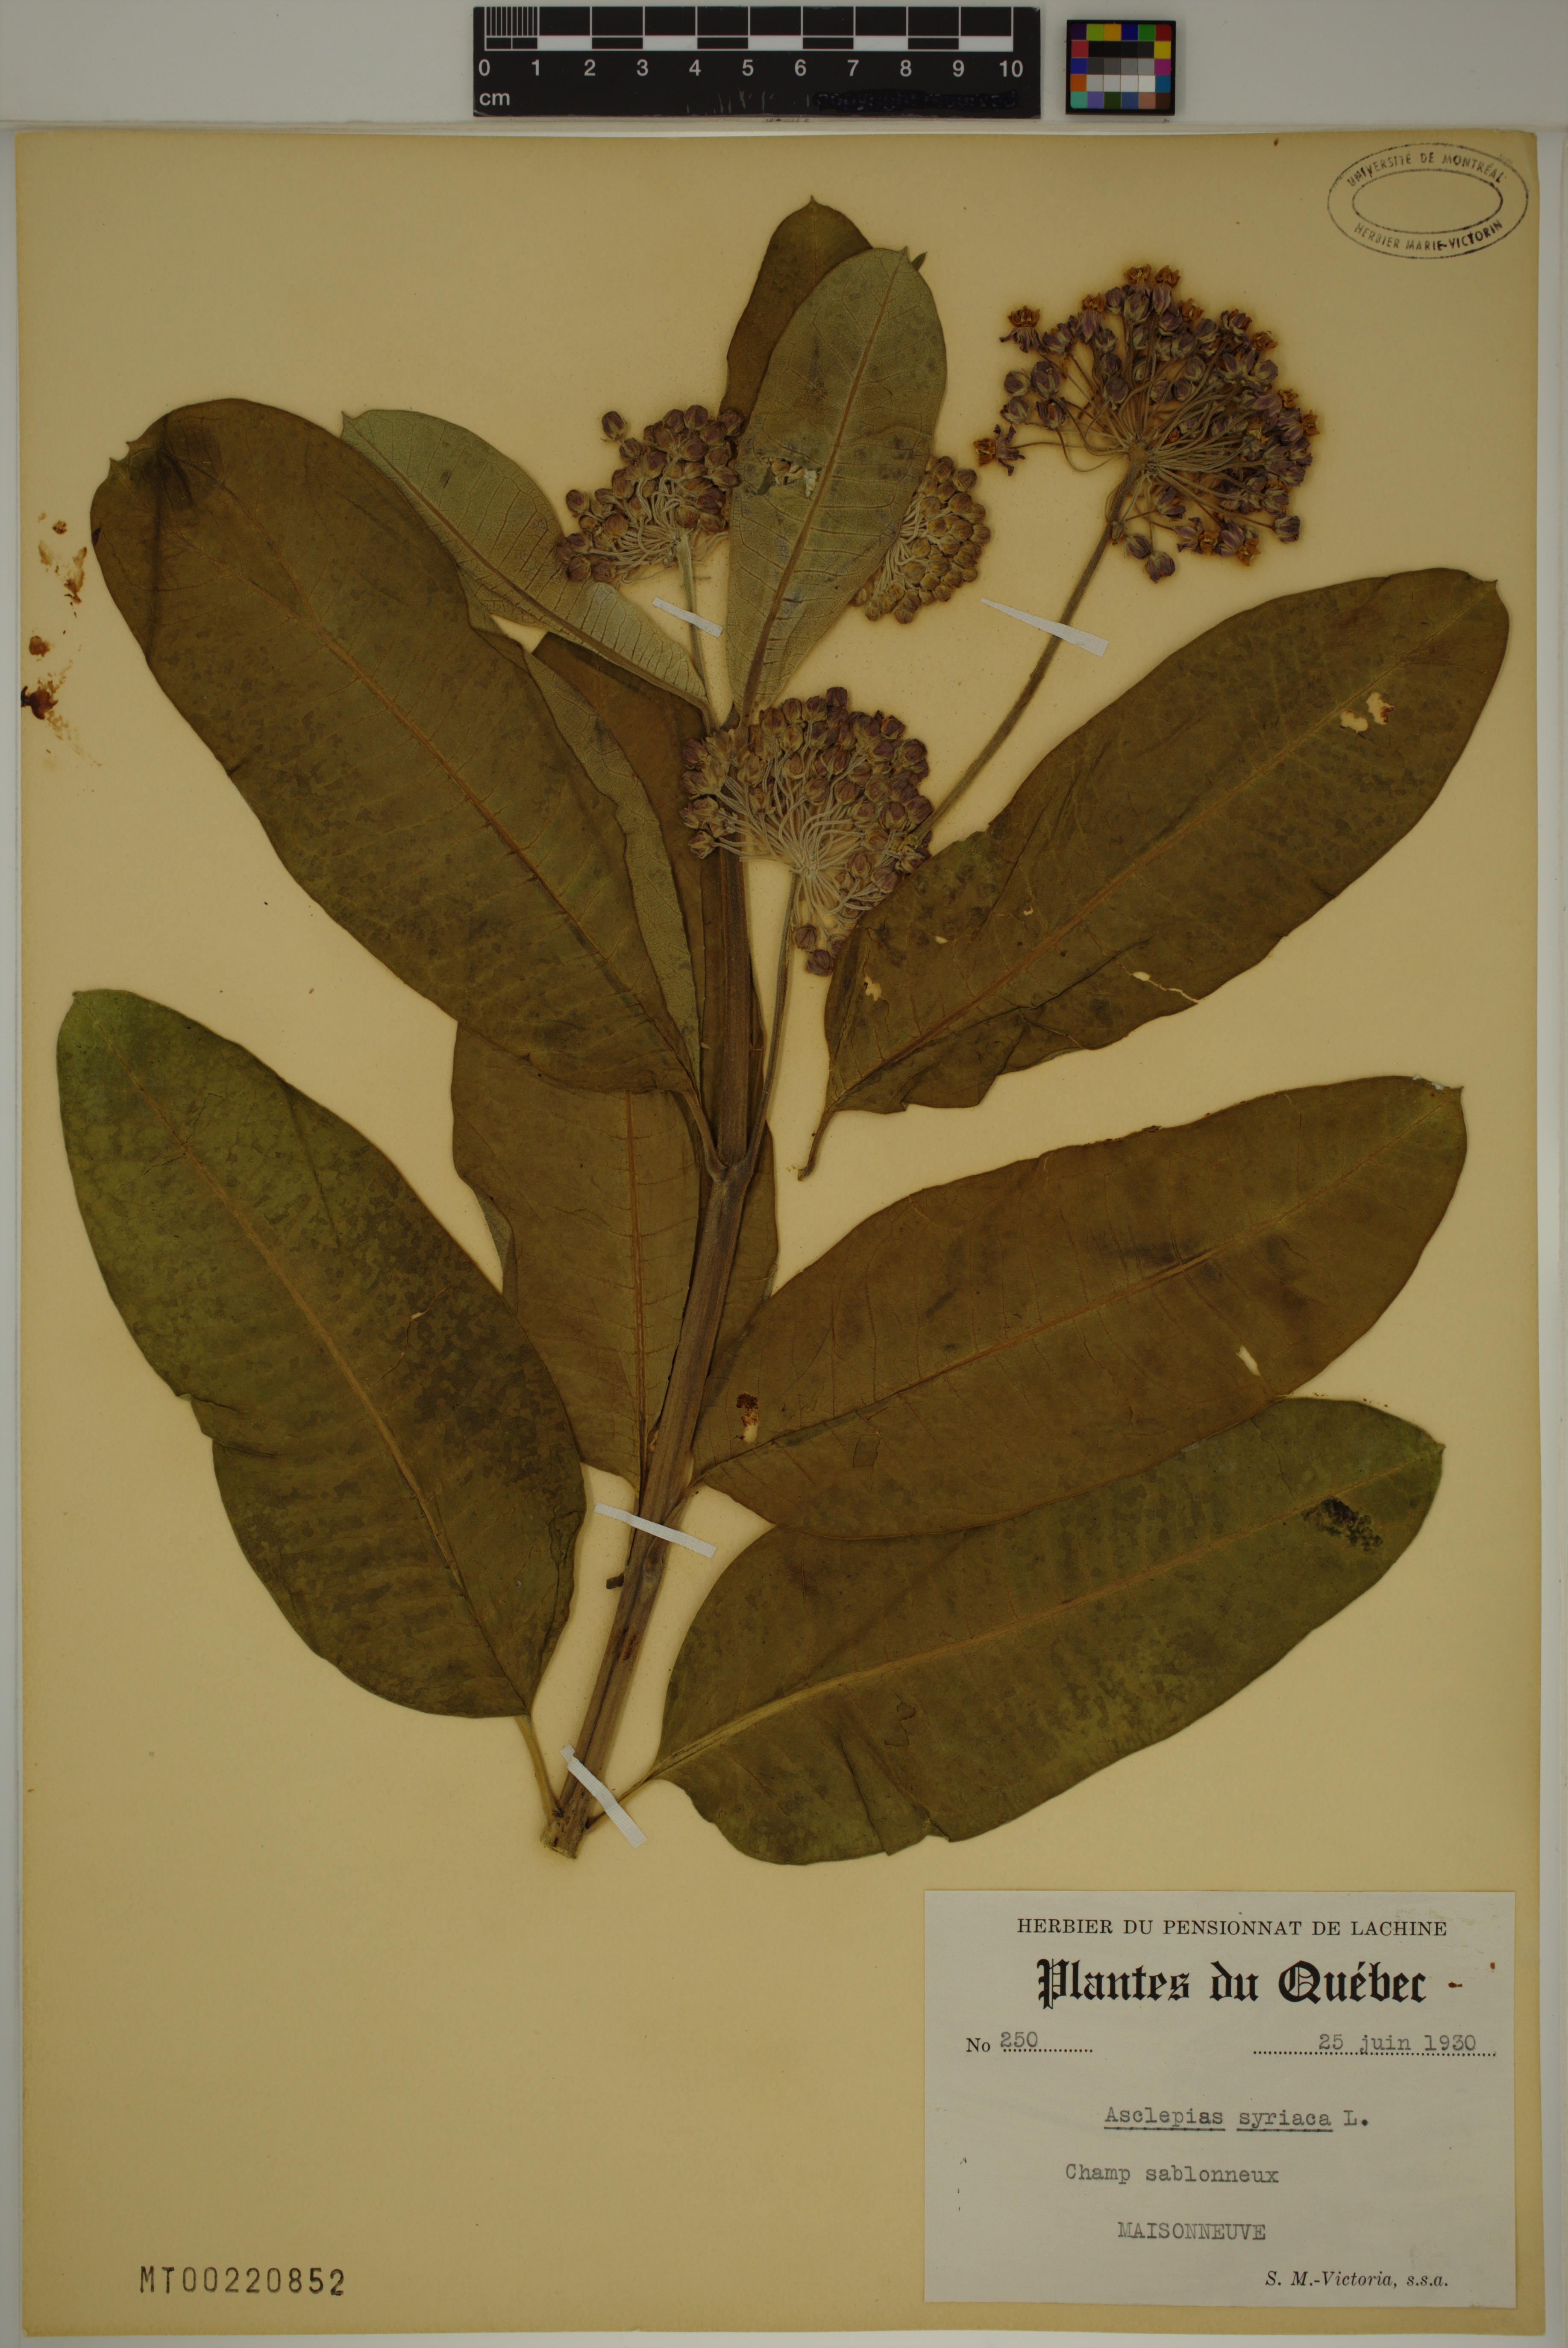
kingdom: Plantae
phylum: Tracheophyta
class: Magnoliopsida
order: Gentianales
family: Apocynaceae
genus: Asclepias
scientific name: Asclepias syriaca
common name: Common milkweed
